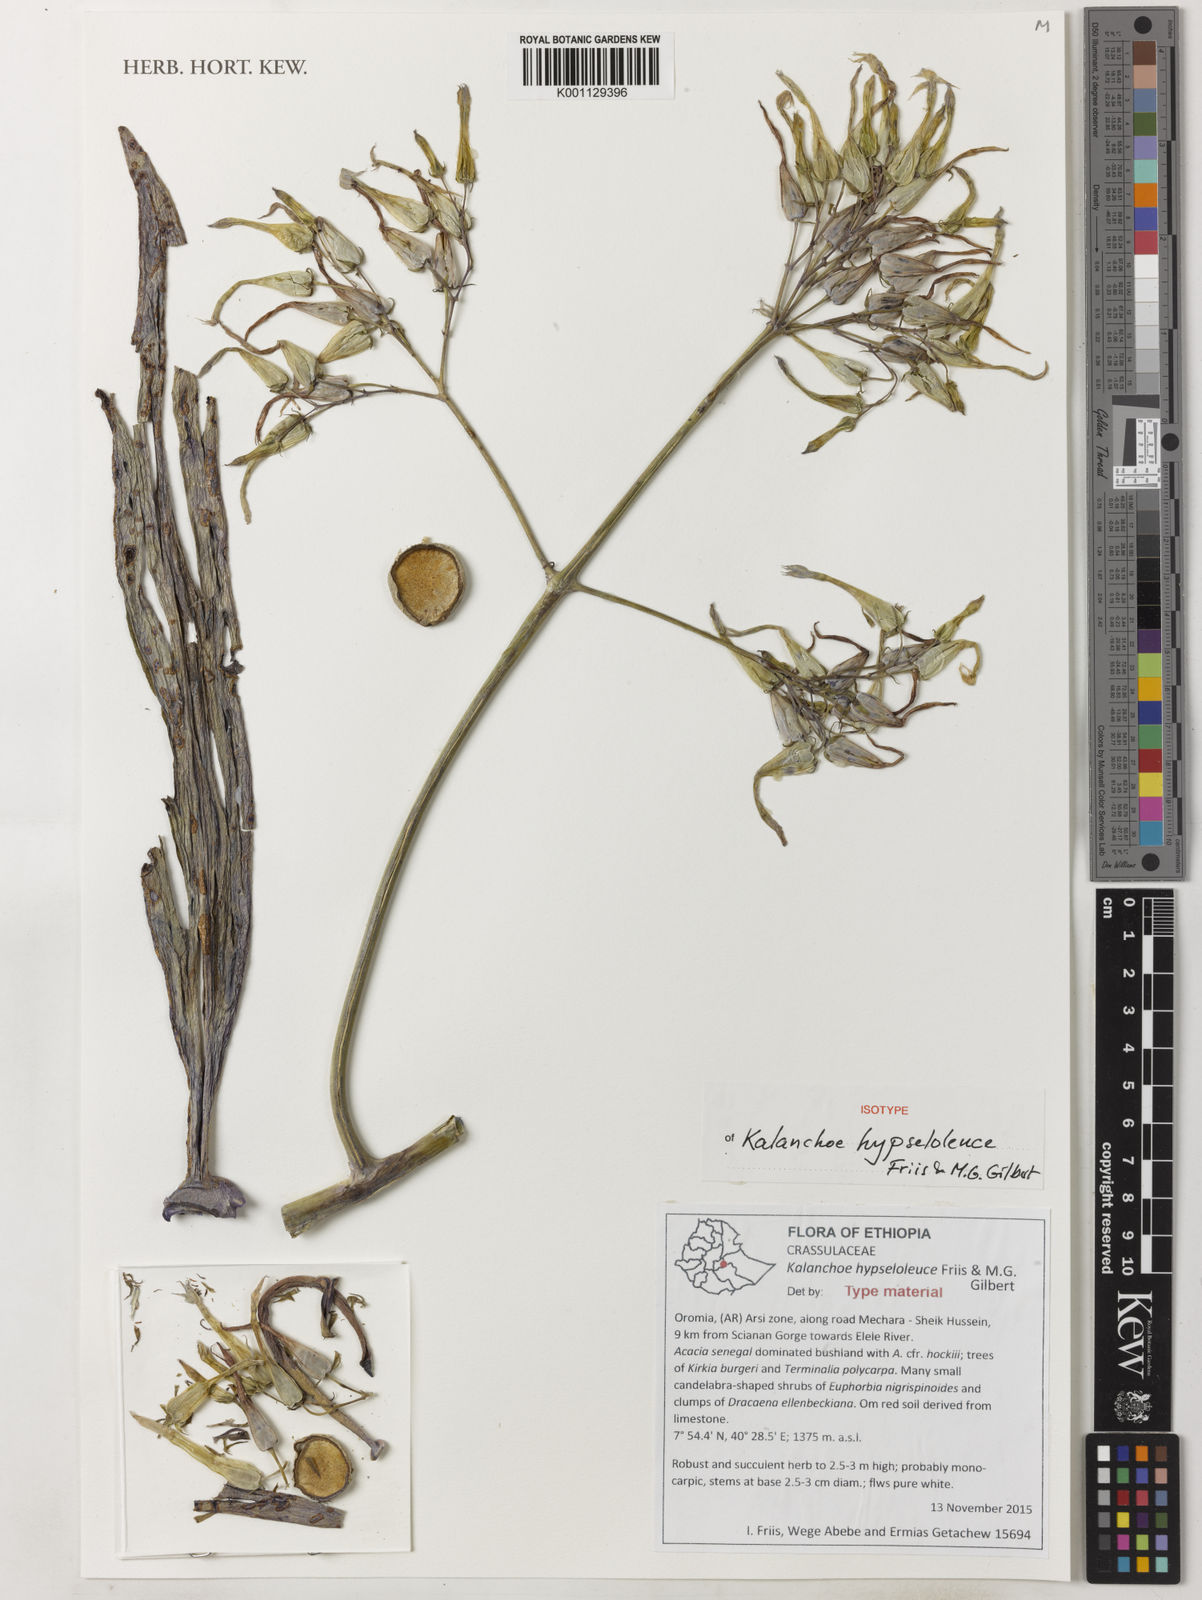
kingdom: Plantae
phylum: Tracheophyta
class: Magnoliopsida
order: Saxifragales
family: Crassulaceae
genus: Kalanchoe
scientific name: Kalanchoe hypseloleuce
